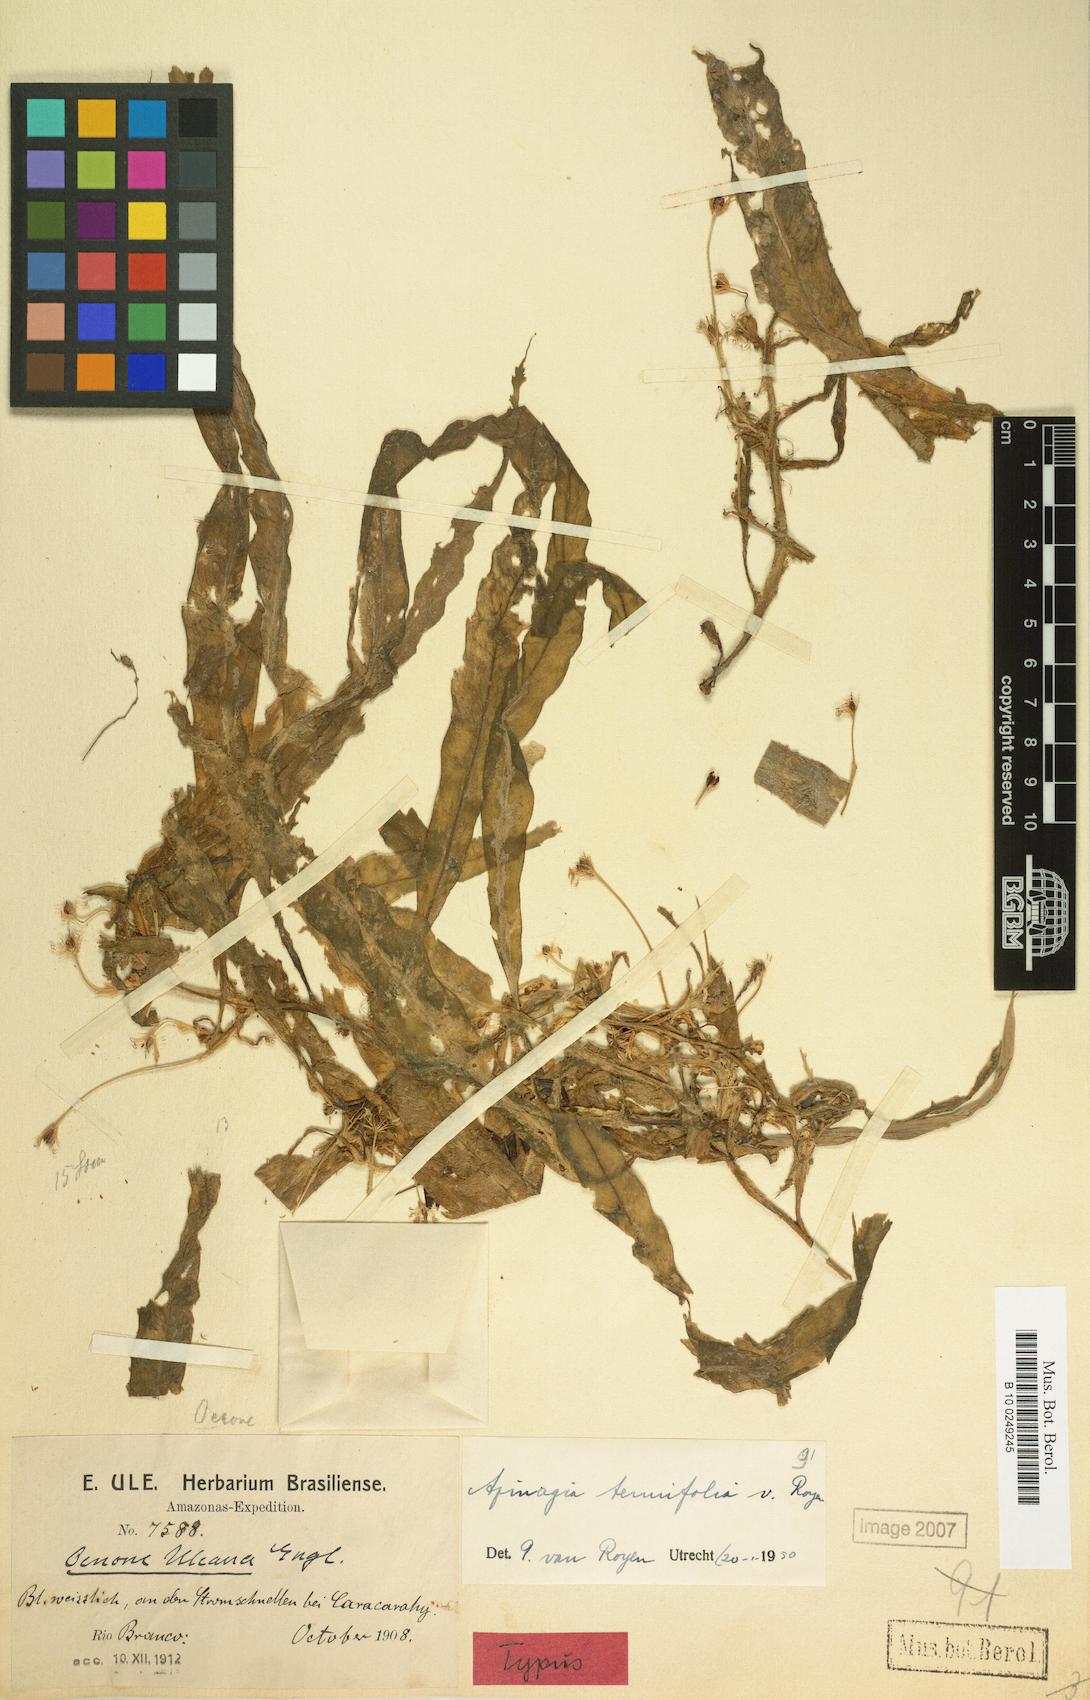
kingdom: Plantae
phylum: Tracheophyta
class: Magnoliopsida
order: Malpighiales
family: Podostemaceae
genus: Apinagia
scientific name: Apinagia tenuifolia
